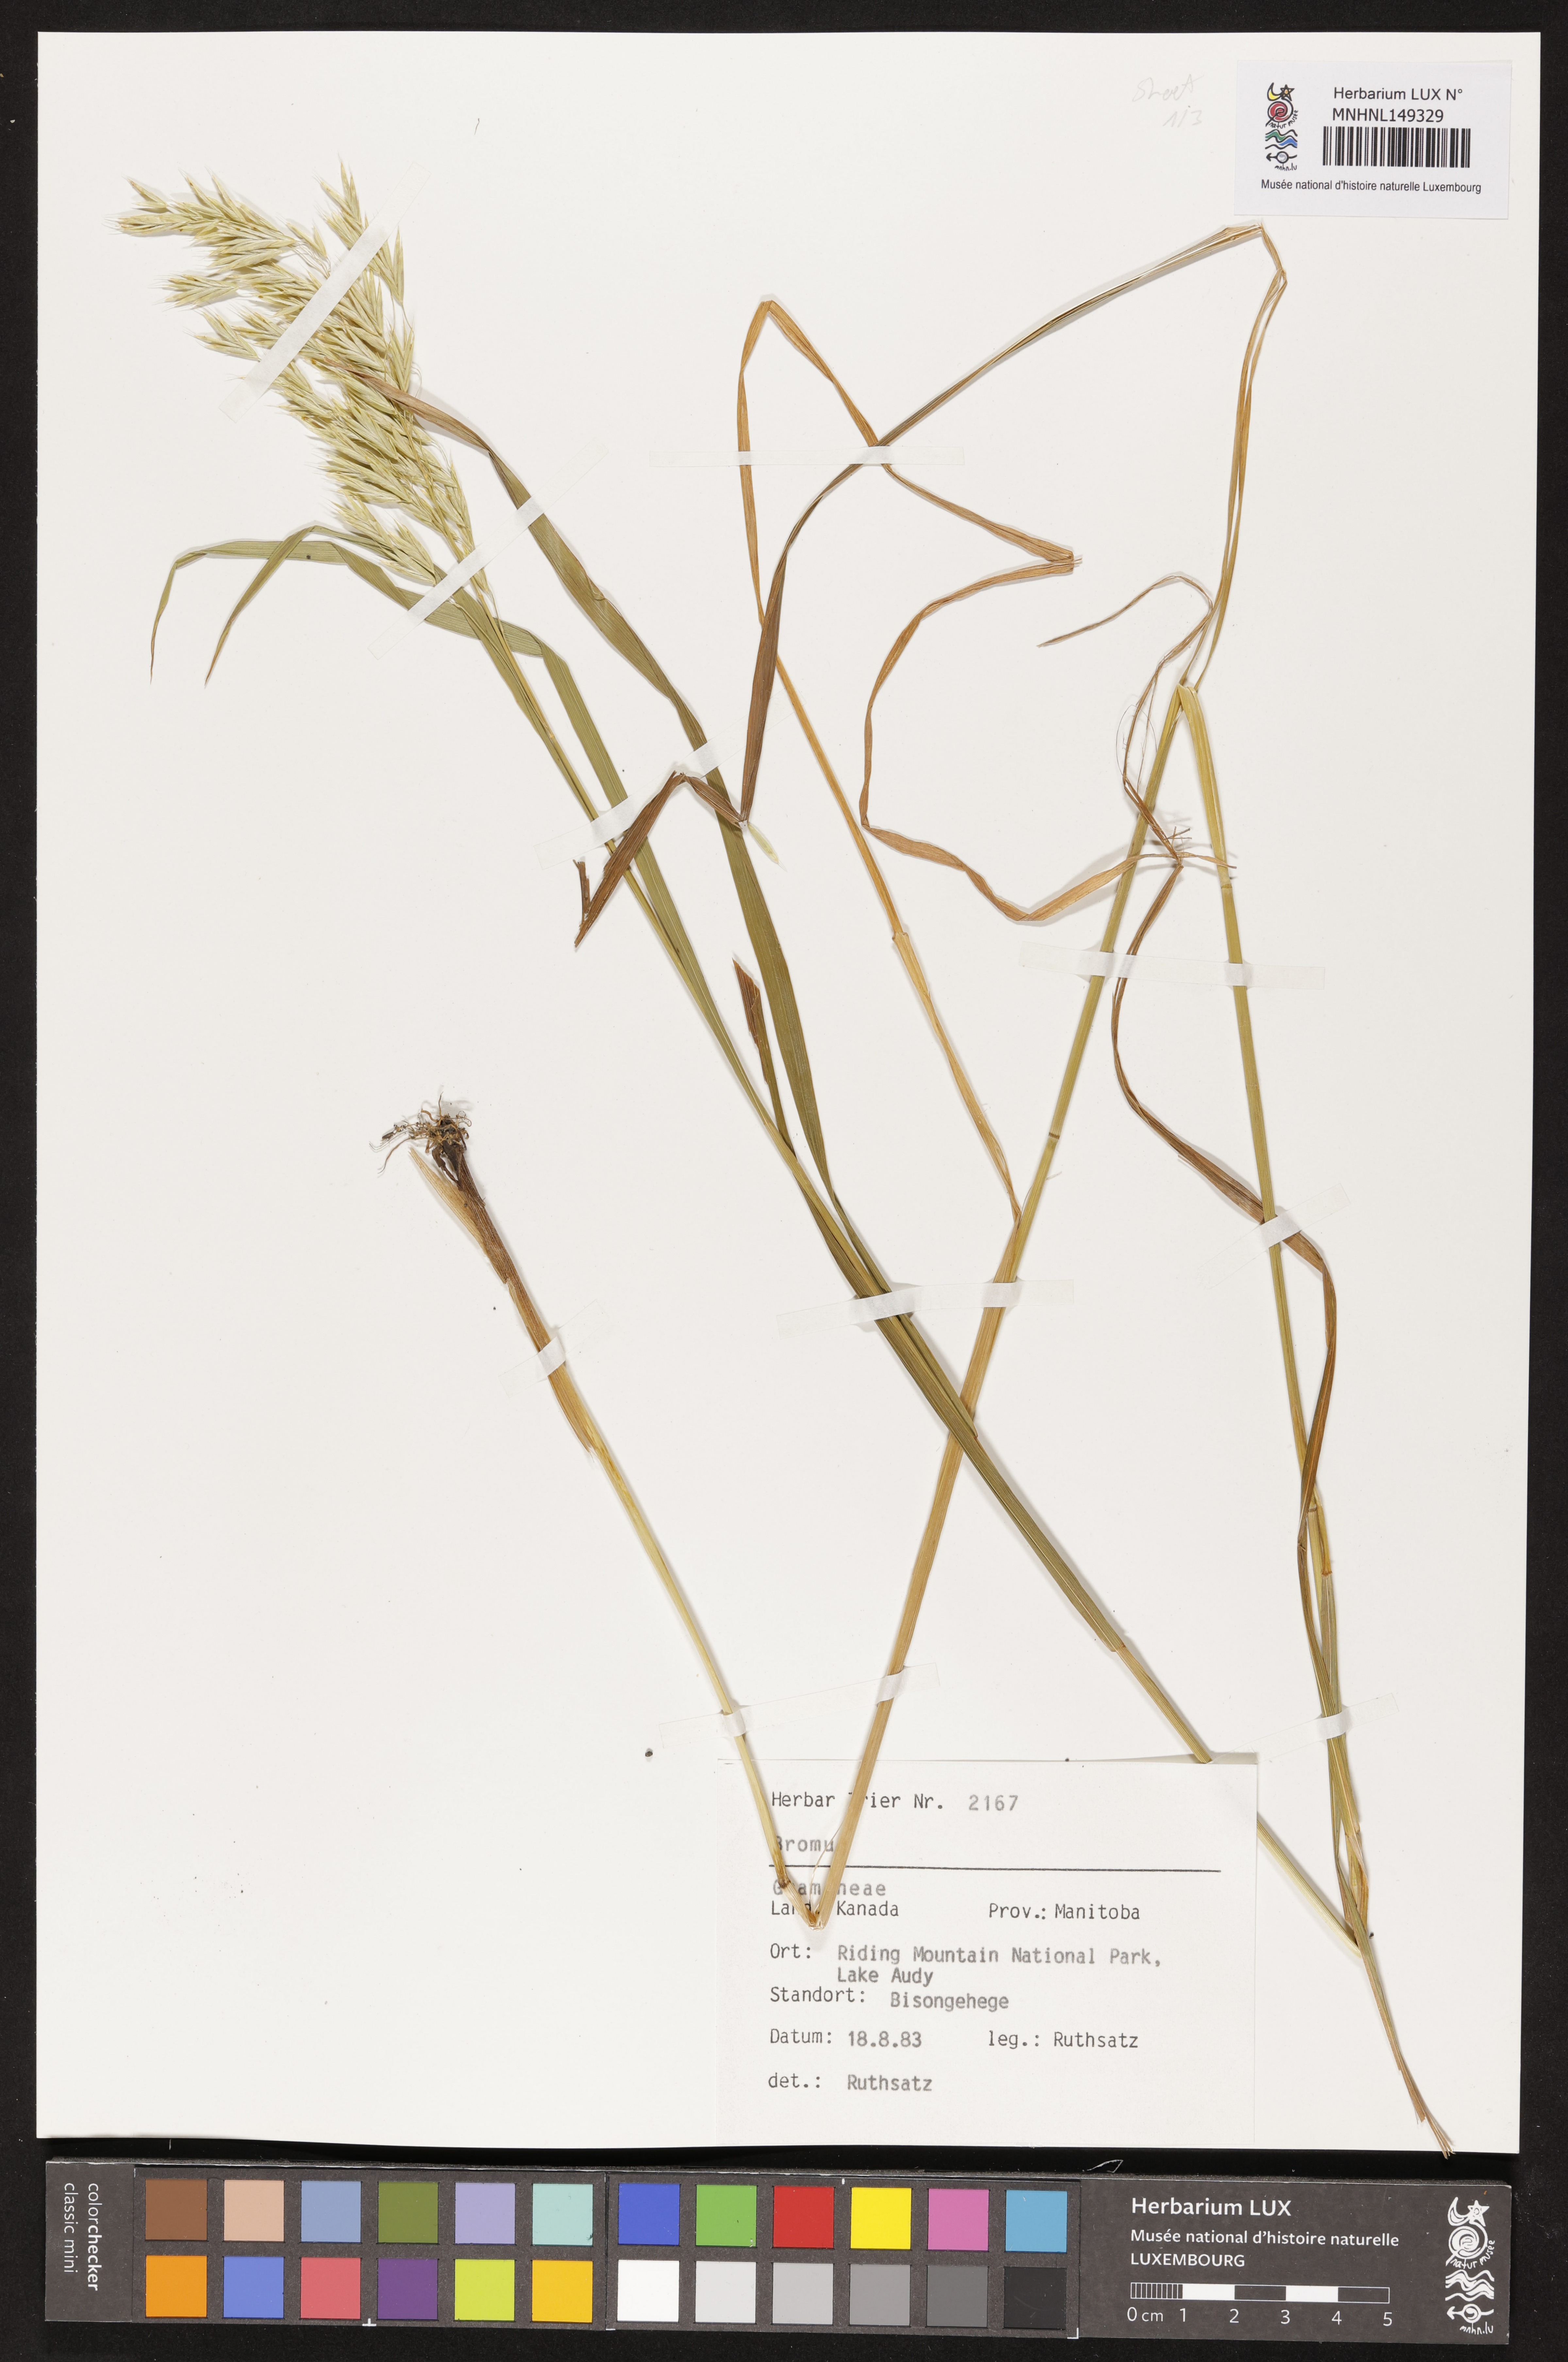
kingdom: Plantae
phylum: Tracheophyta
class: Liliopsida
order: Poales
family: Poaceae
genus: Bromus
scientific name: Bromus
